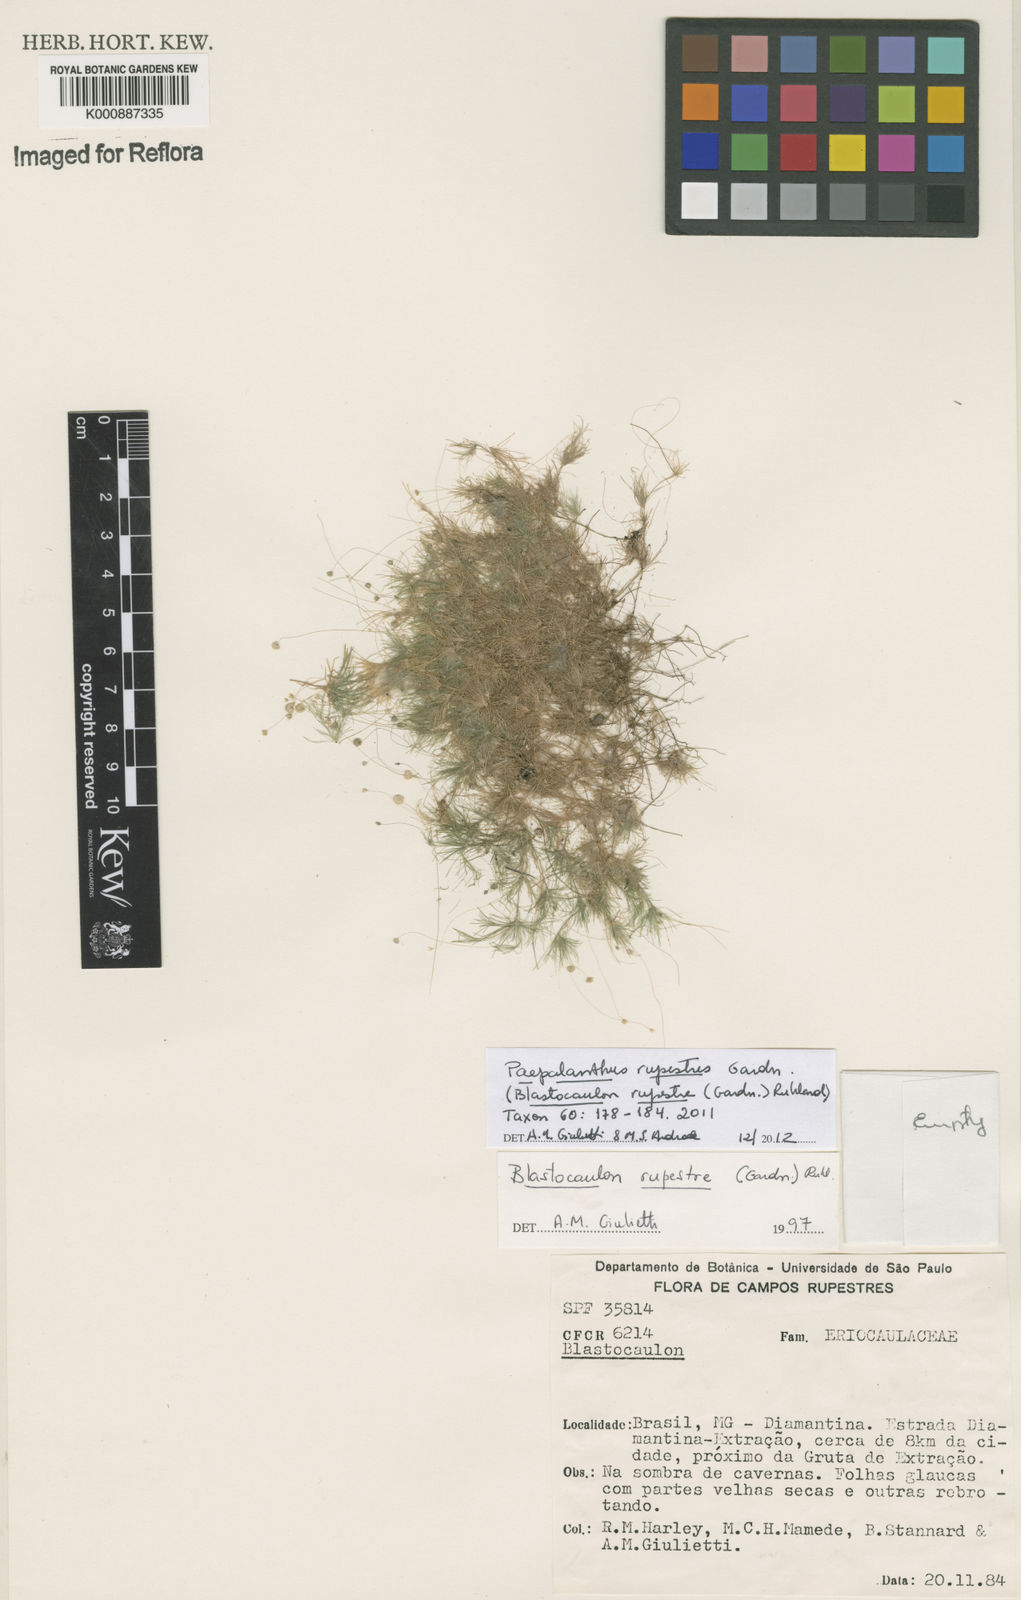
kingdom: Plantae
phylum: Tracheophyta
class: Liliopsida
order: Poales
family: Eriocaulaceae
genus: Paepalanthus
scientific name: Paepalanthus rupestris
